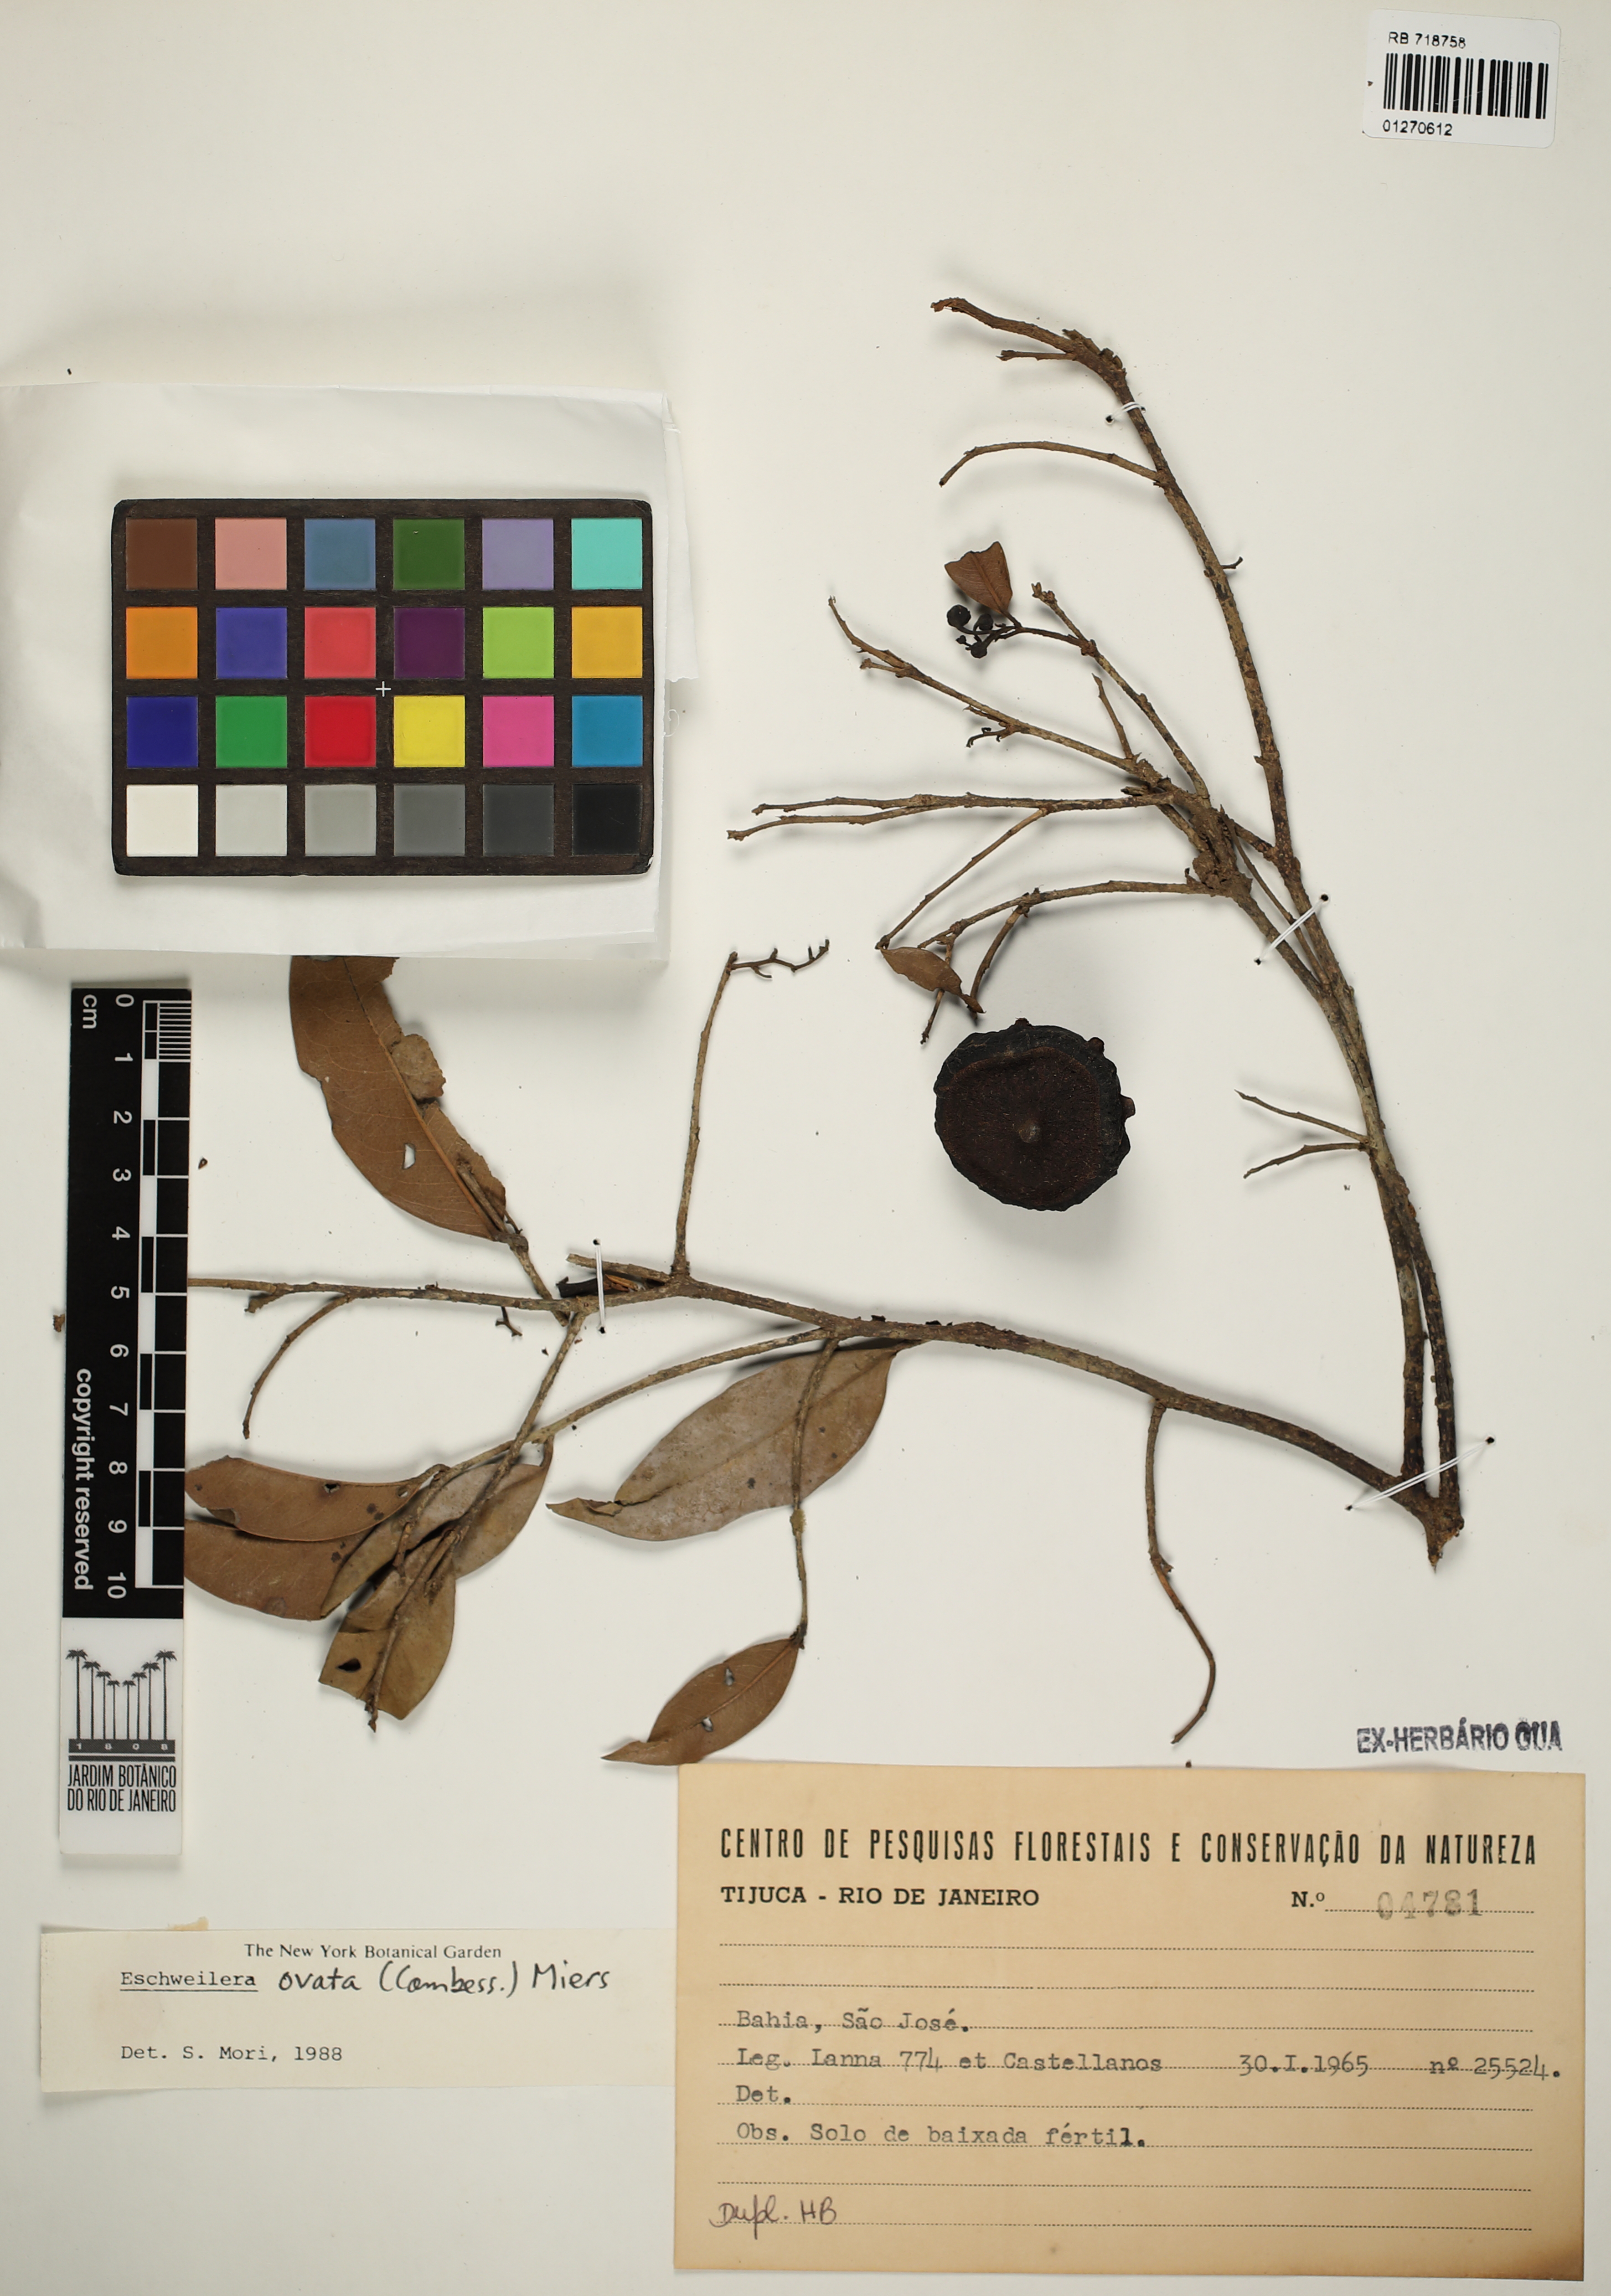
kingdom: Plantae
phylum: Tracheophyta
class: Magnoliopsida
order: Ericales
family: Lecythidaceae
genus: Eschweilera
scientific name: Eschweilera ovata
